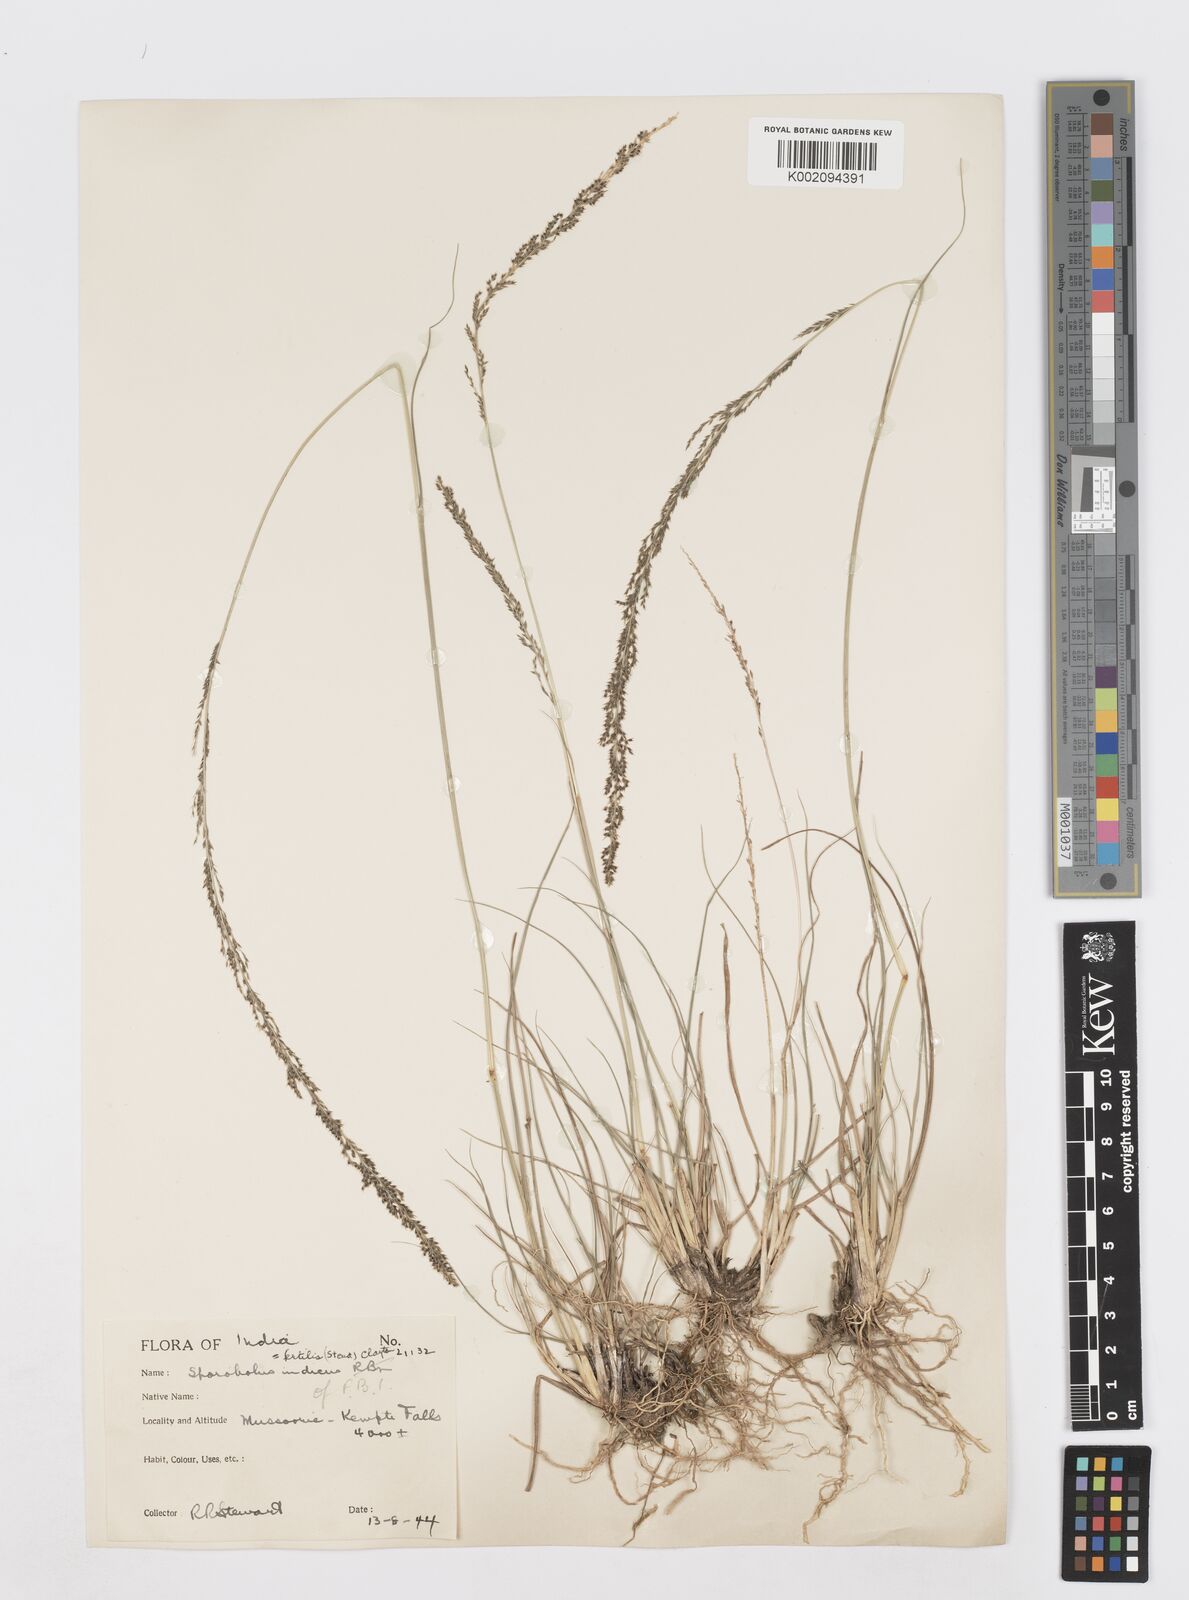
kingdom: Plantae
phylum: Tracheophyta
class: Liliopsida
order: Poales
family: Poaceae
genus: Sporobolus
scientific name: Sporobolus fertilis
